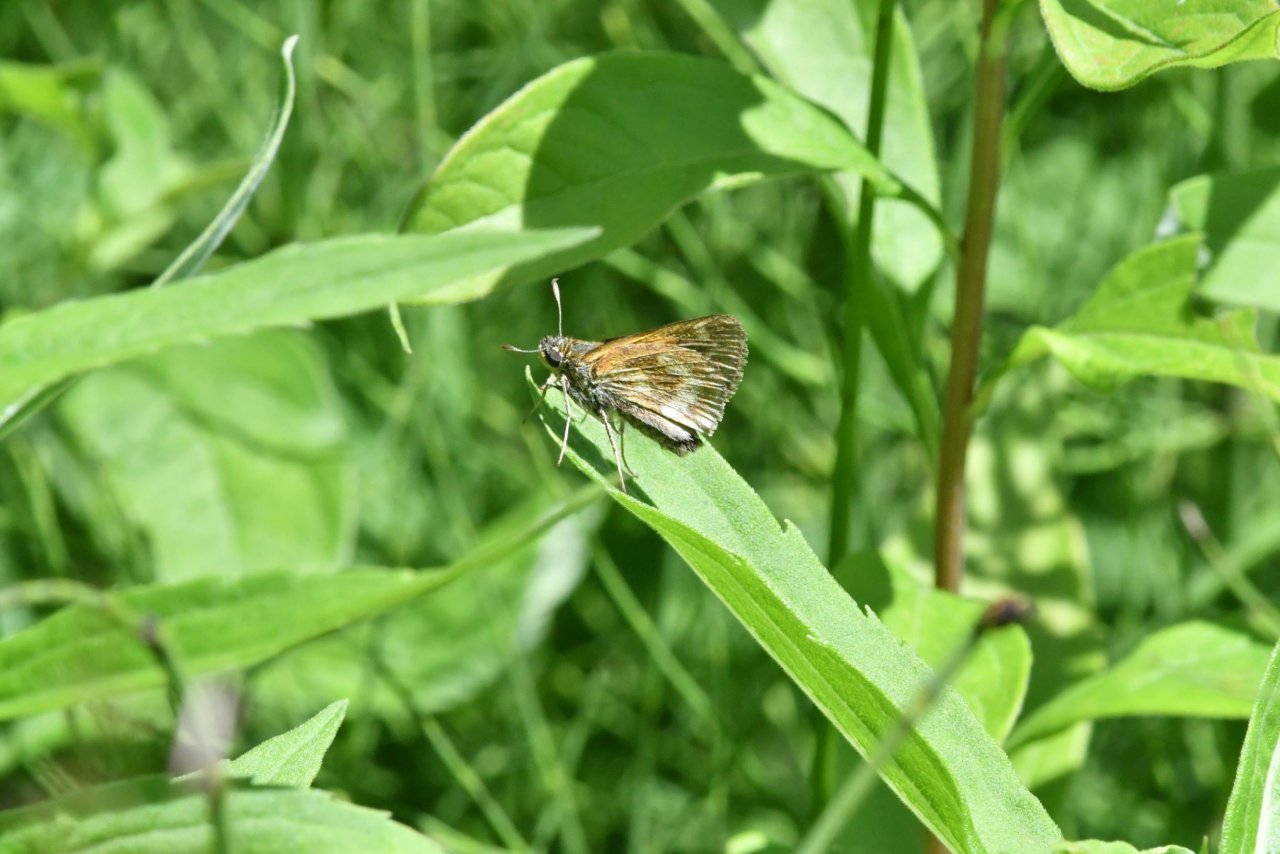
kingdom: Animalia
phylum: Arthropoda
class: Insecta
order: Lepidoptera
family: Hesperiidae
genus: Polites
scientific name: Polites
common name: Long Dash Skipper
